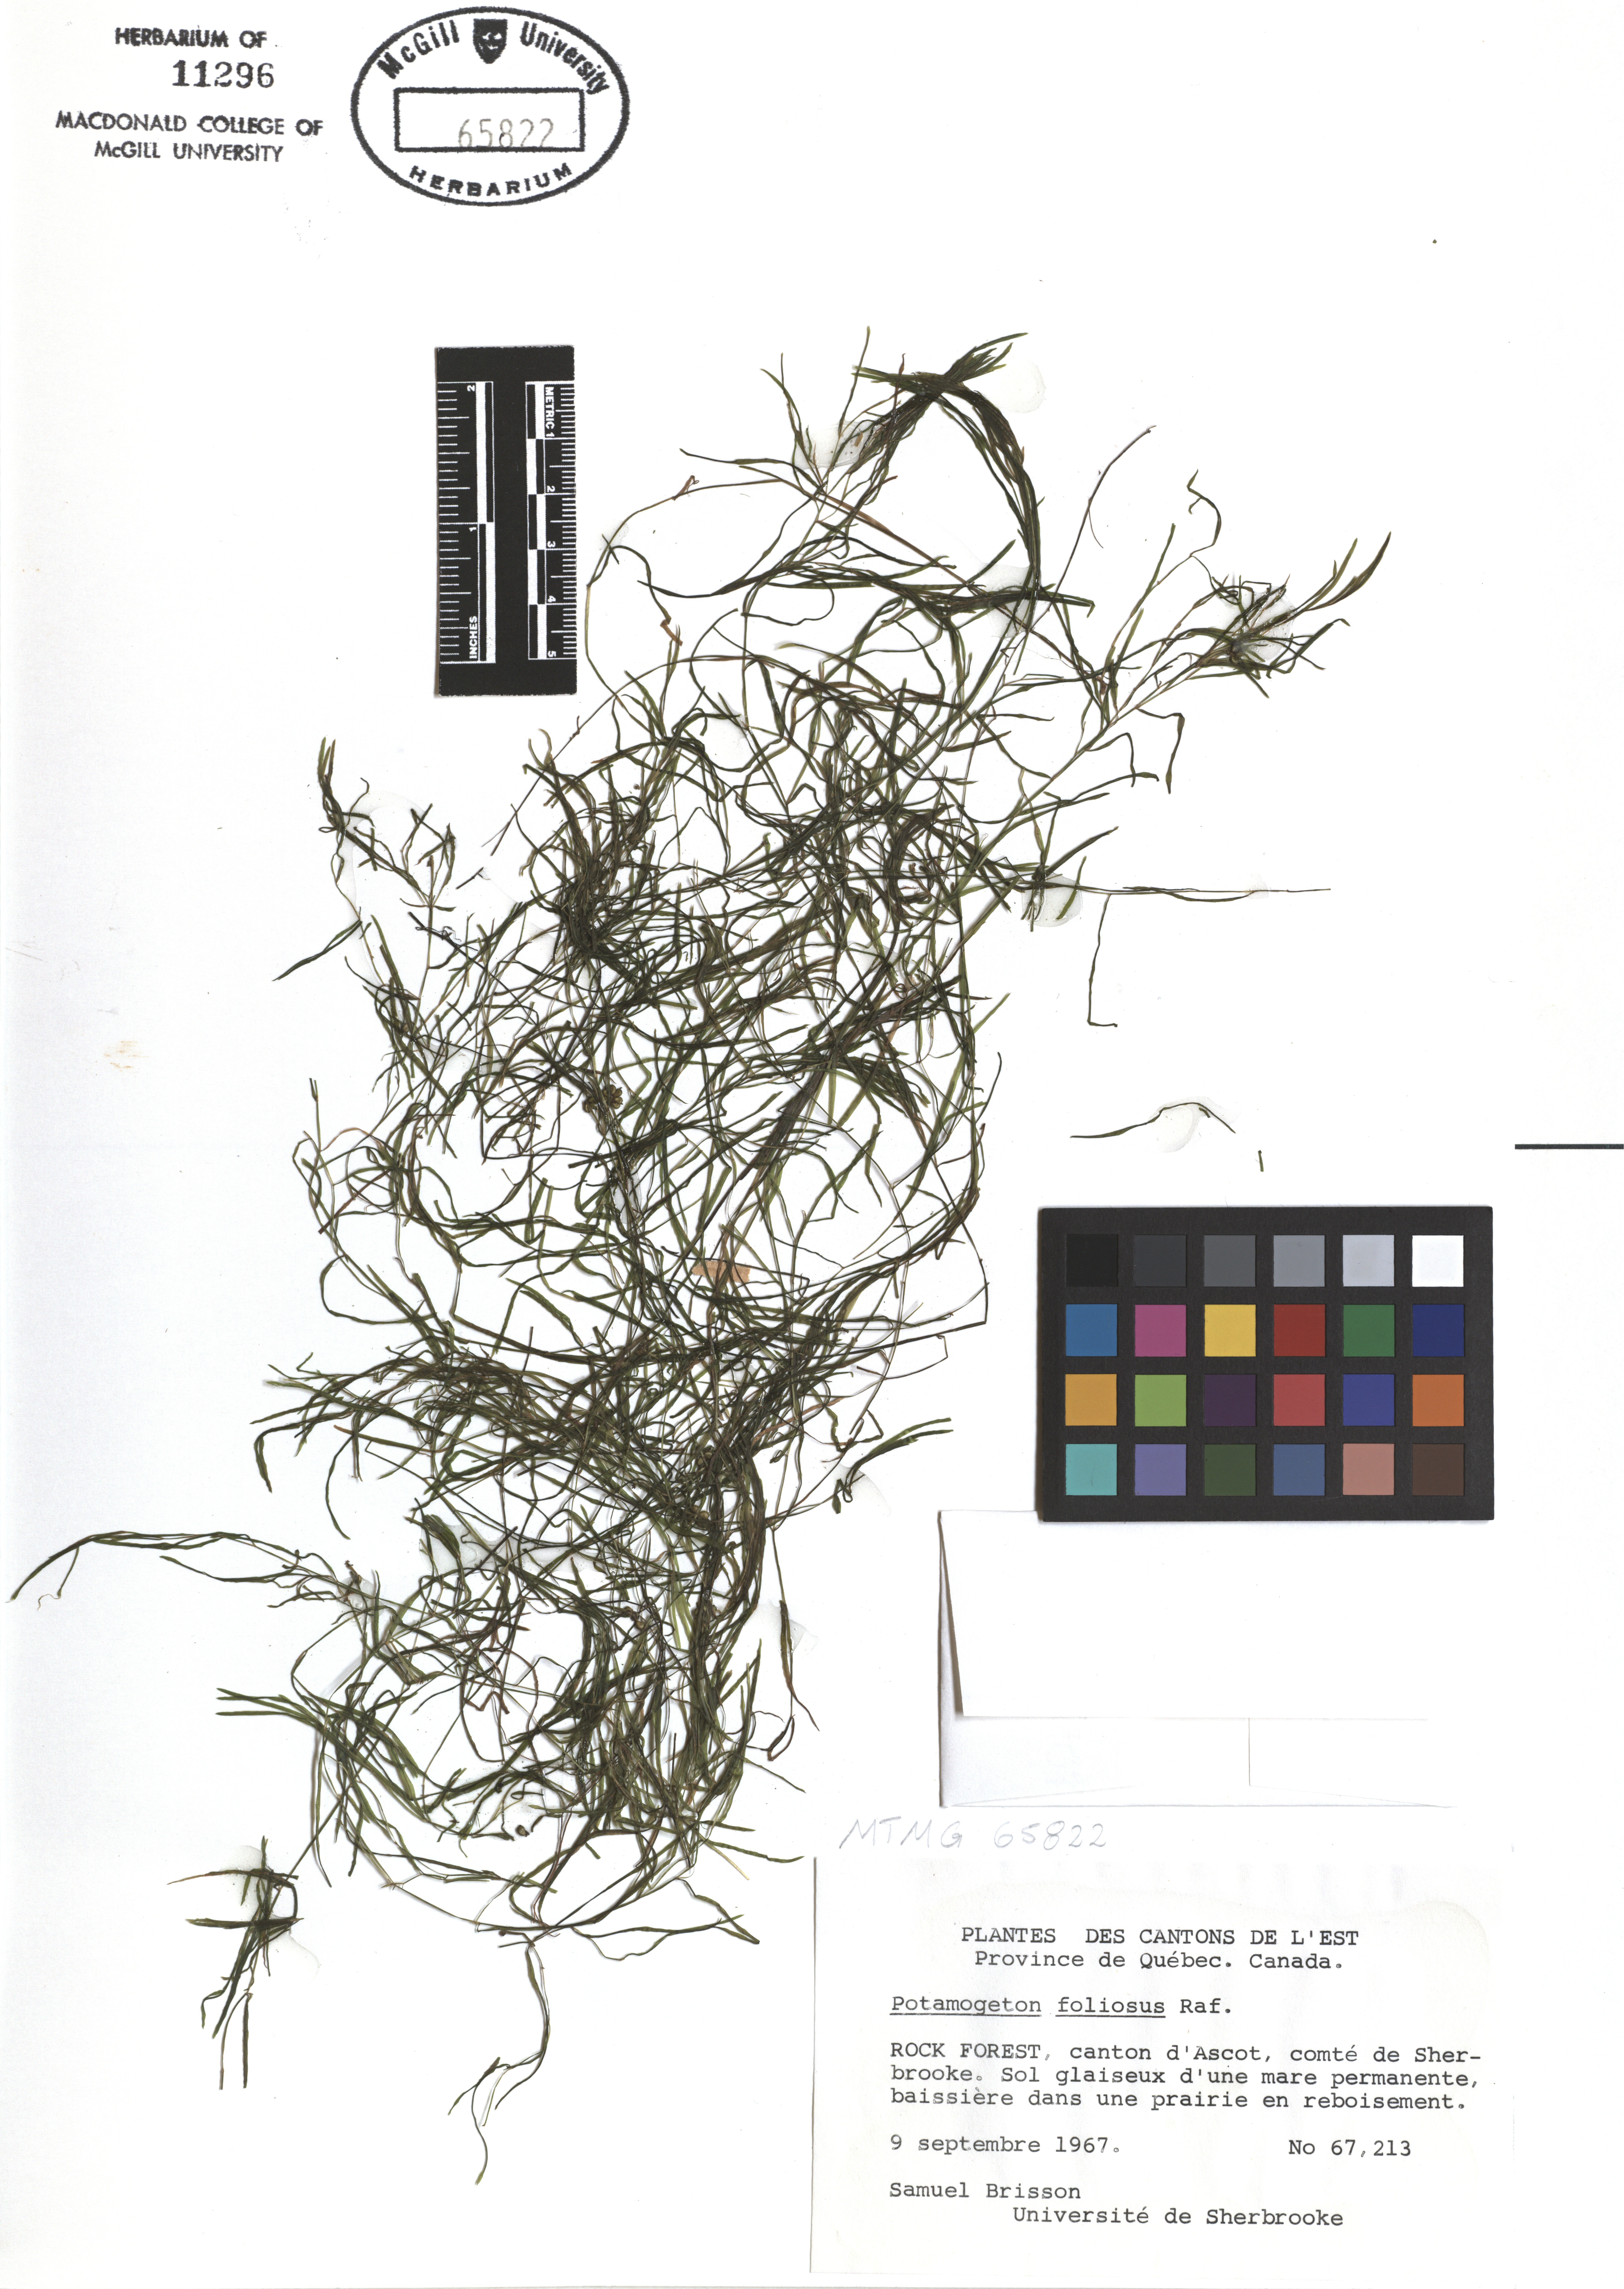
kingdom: Plantae
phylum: Tracheophyta
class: Liliopsida
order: Alismatales
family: Potamogetonaceae
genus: Potamogeton
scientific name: Potamogeton foliosus
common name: Leafy pondweed
